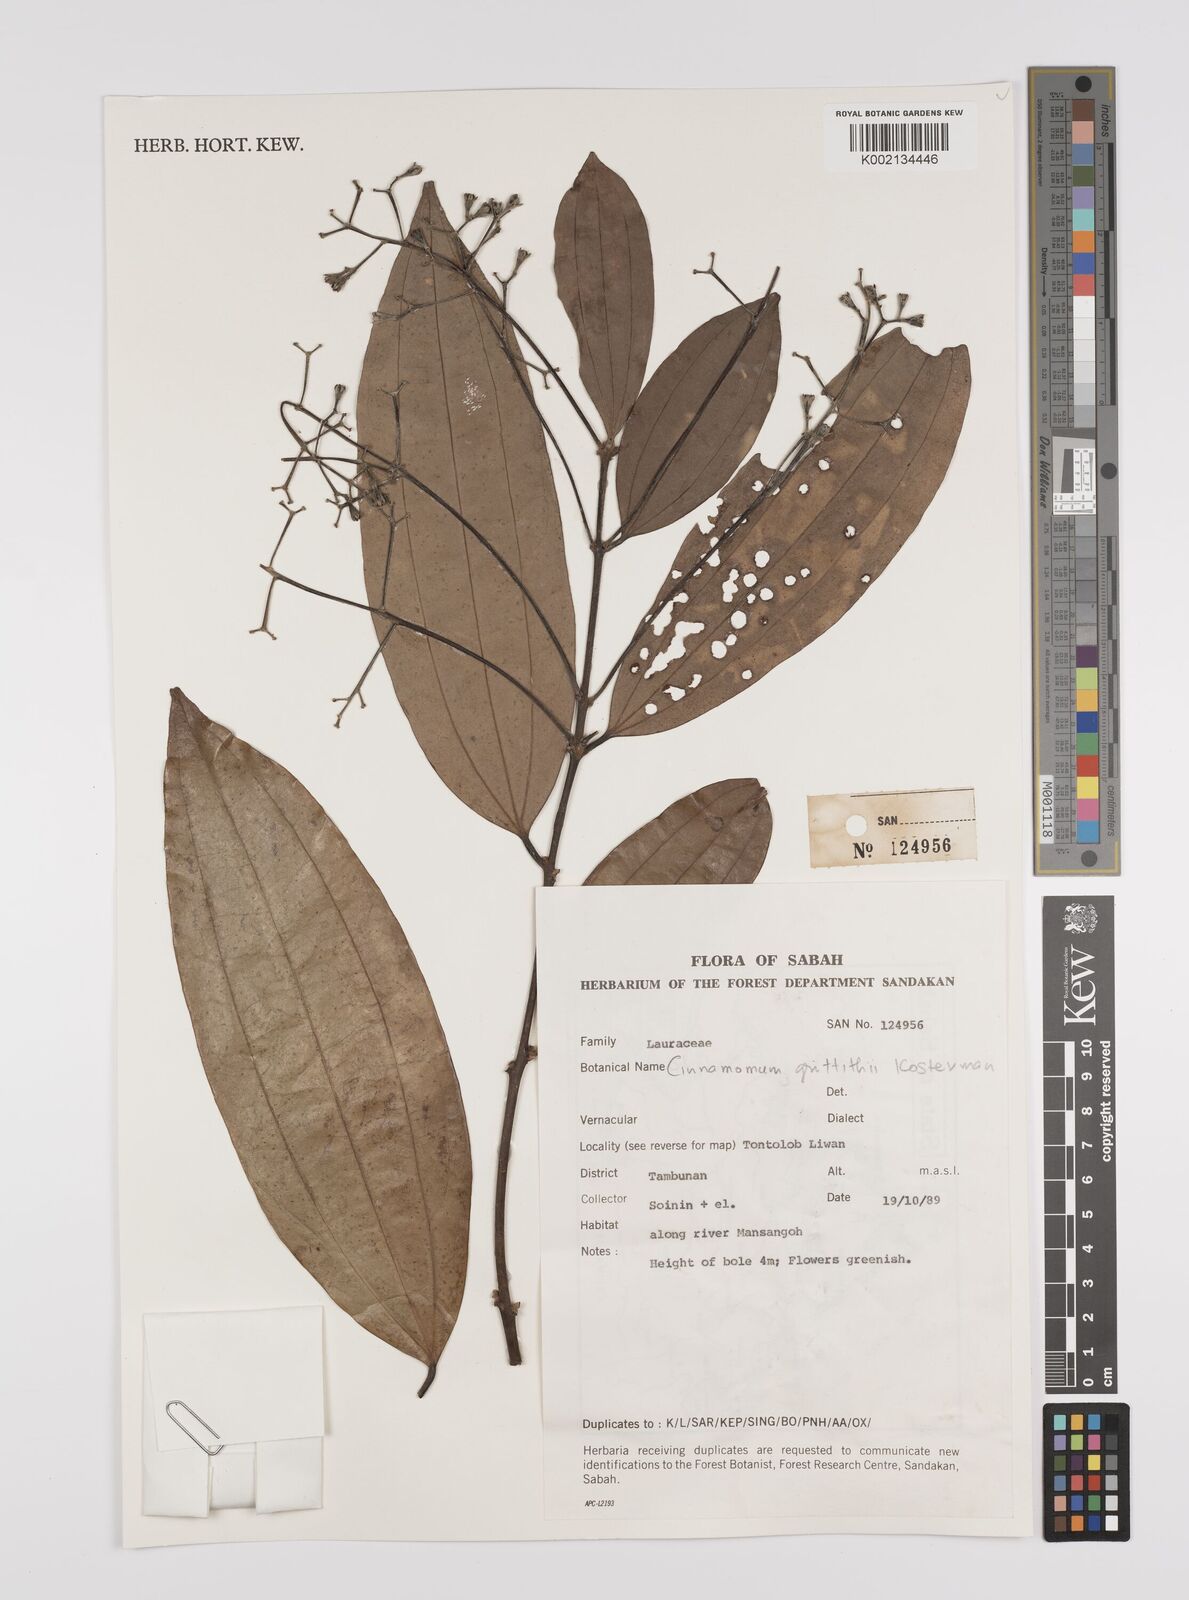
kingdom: Plantae
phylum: Tracheophyta
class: Magnoliopsida
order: Laurales
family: Lauraceae
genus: Cinnamomum
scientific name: Cinnamomum iners
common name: Wild cinnamon
